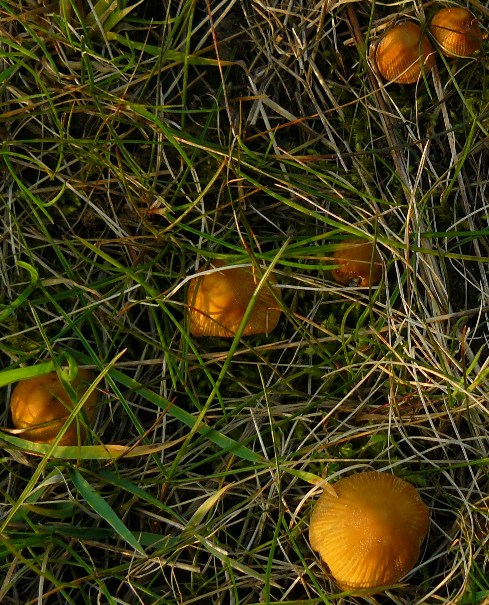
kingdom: Fungi
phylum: Basidiomycota
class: Agaricomycetes
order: Agaricales
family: Psathyrellaceae
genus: Coprinellus
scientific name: Coprinellus micaceus
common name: glimmer-blækhat
